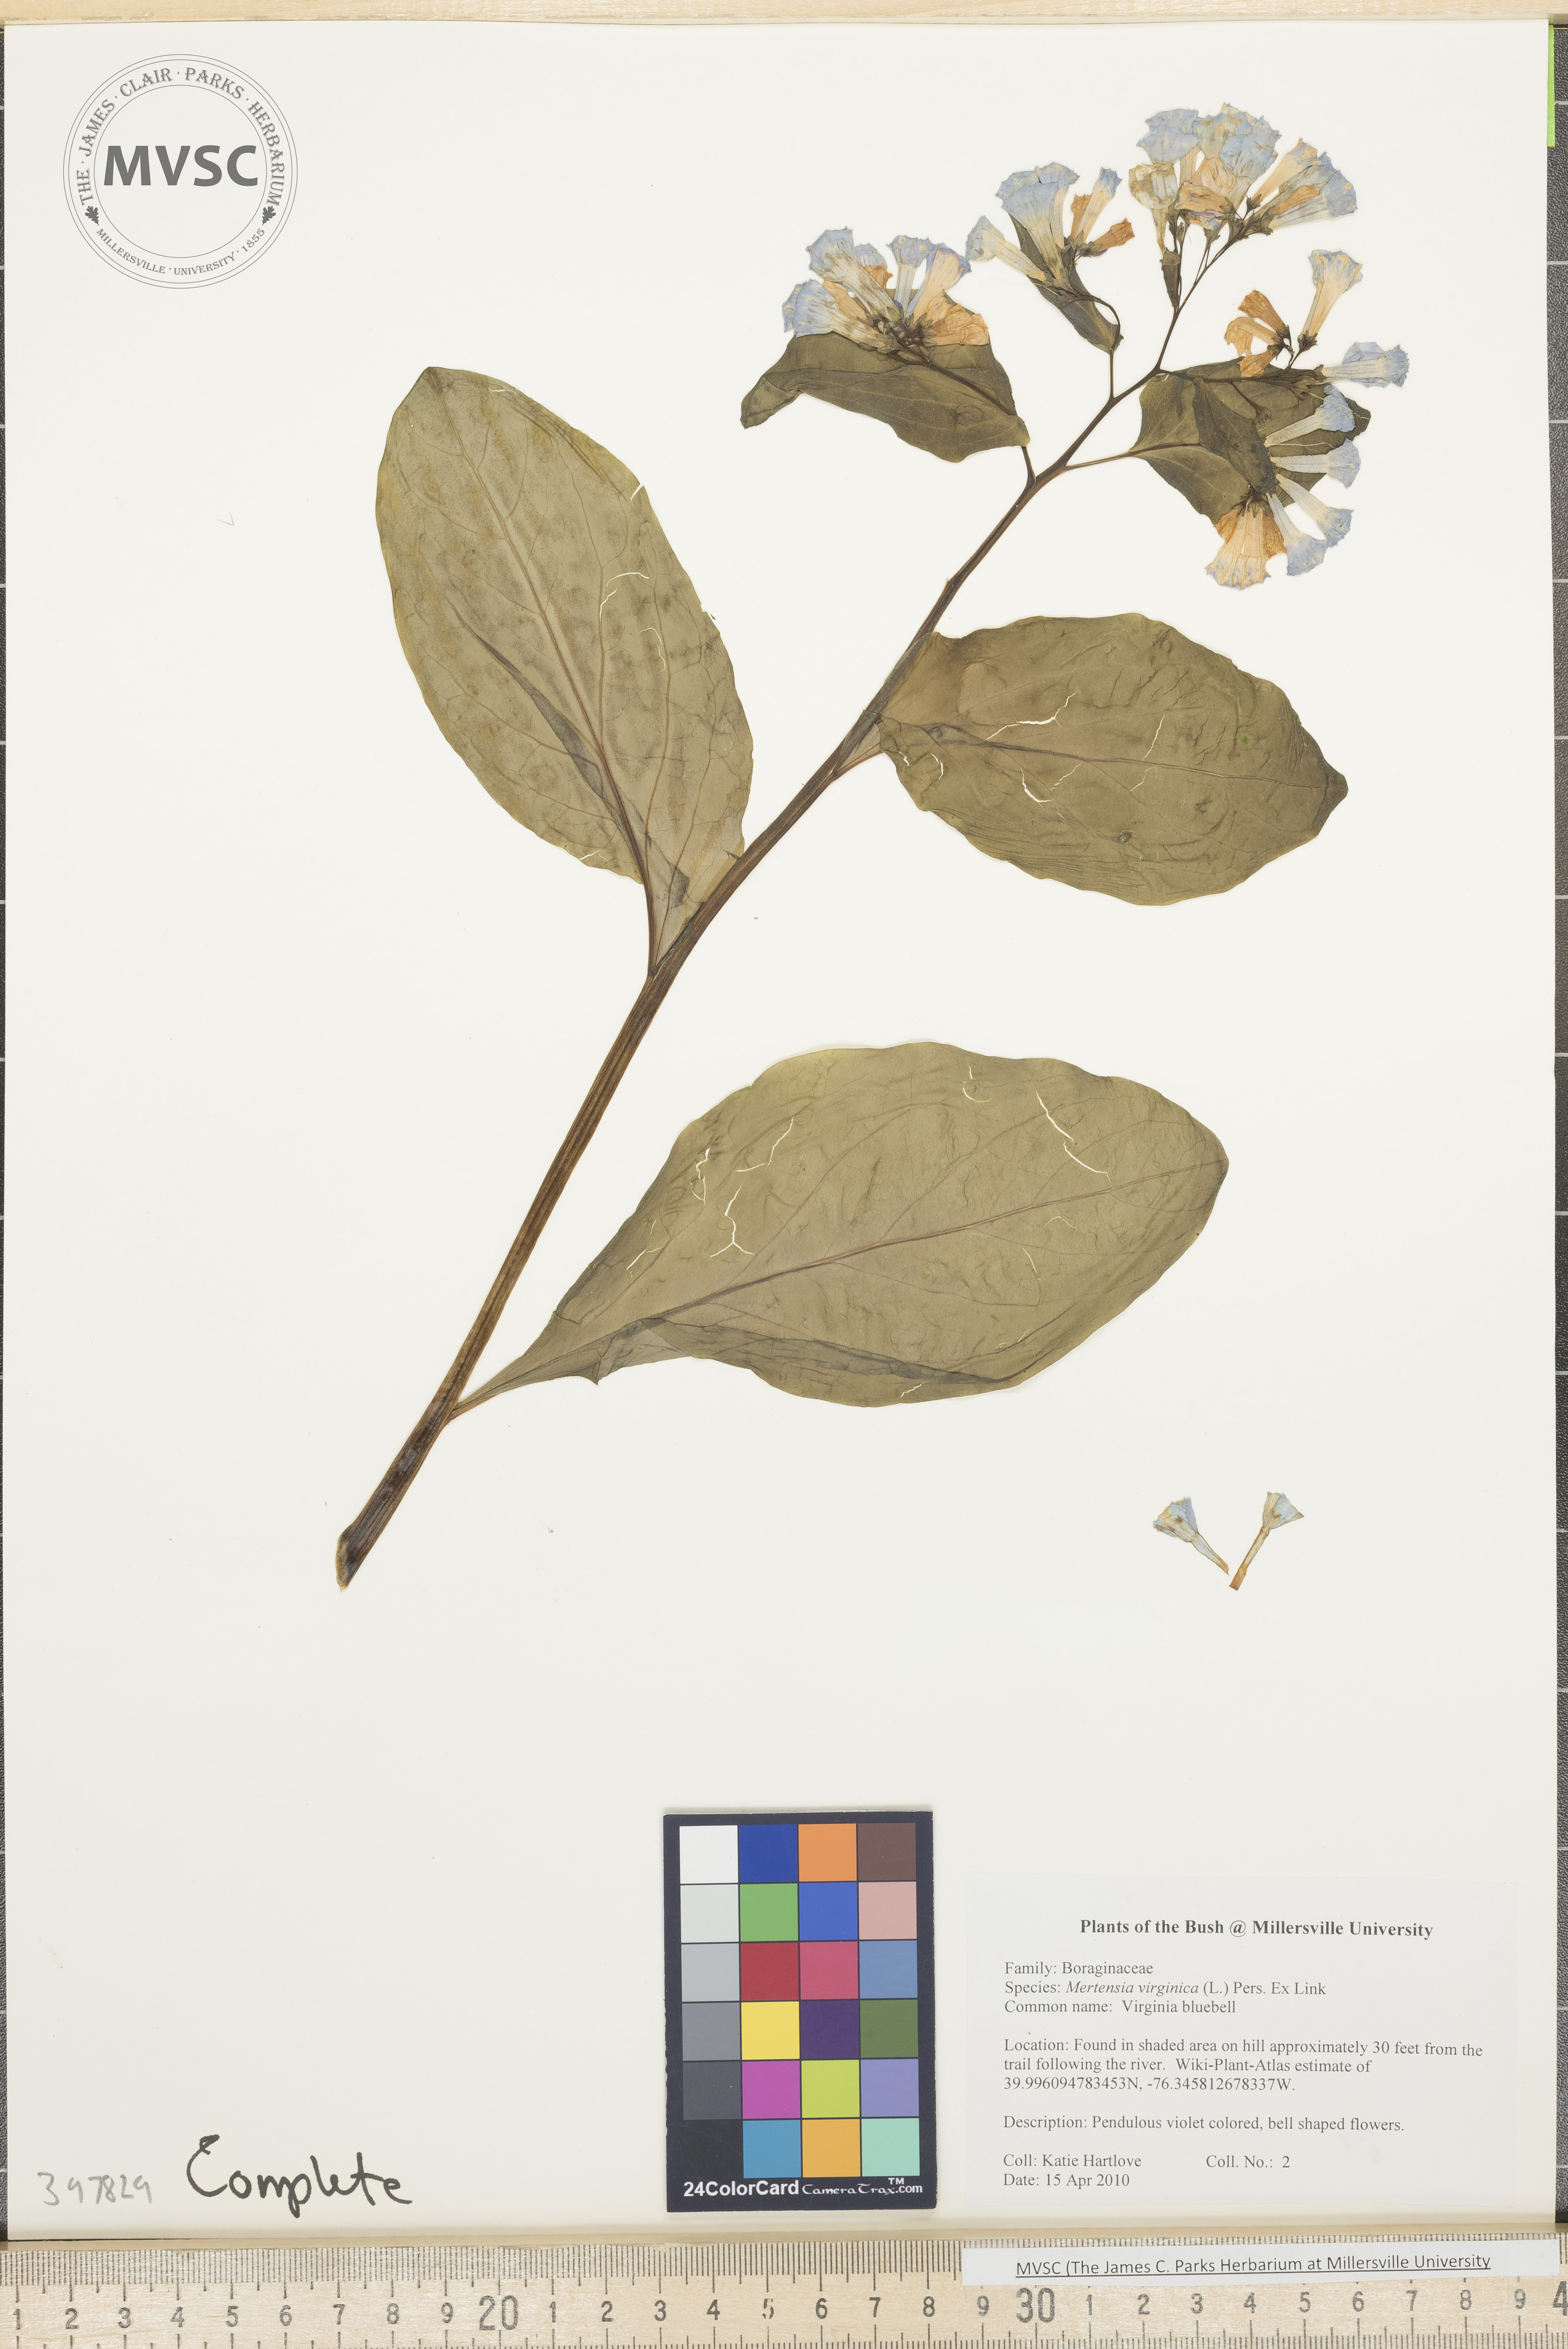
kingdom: Plantae
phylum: Tracheophyta
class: Magnoliopsida
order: Boraginales
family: Boraginaceae
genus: Mertensia
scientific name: Mertensia virginica
